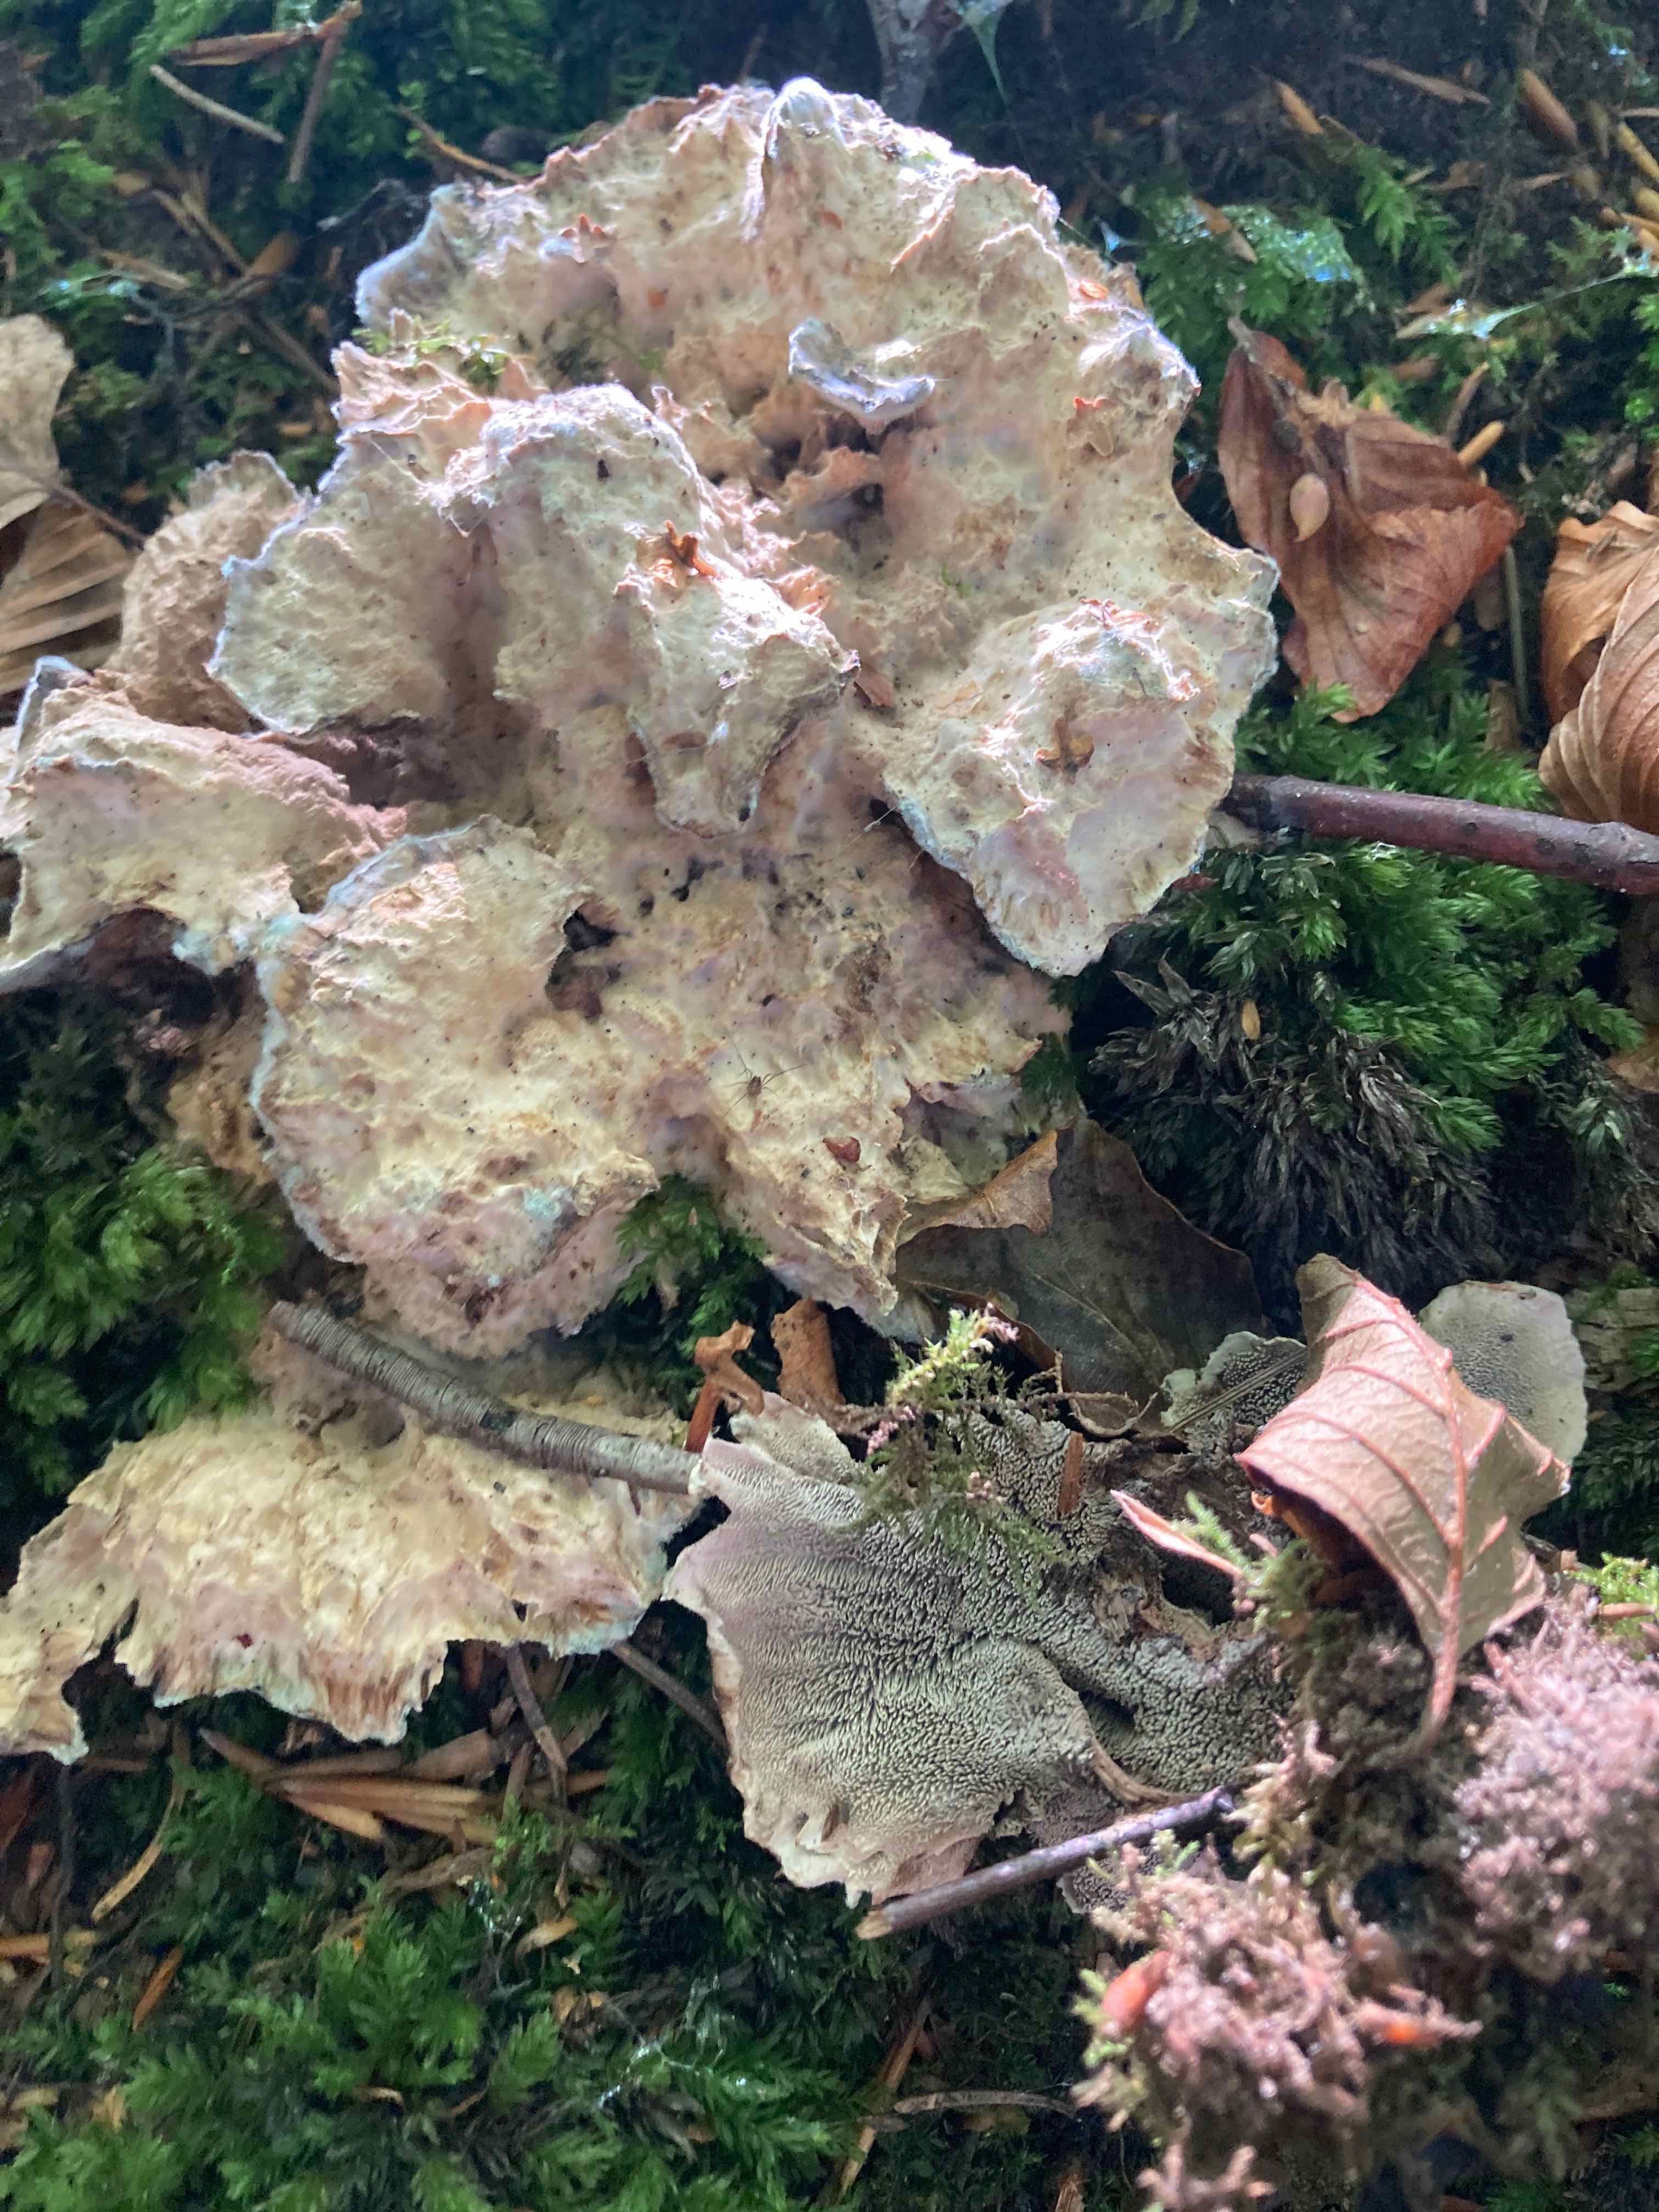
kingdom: Fungi
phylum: Basidiomycota
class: Agaricomycetes
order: Thelephorales
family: Thelephoraceae
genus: Phellodon
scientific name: Phellodon
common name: mørk duftpigsvamp
